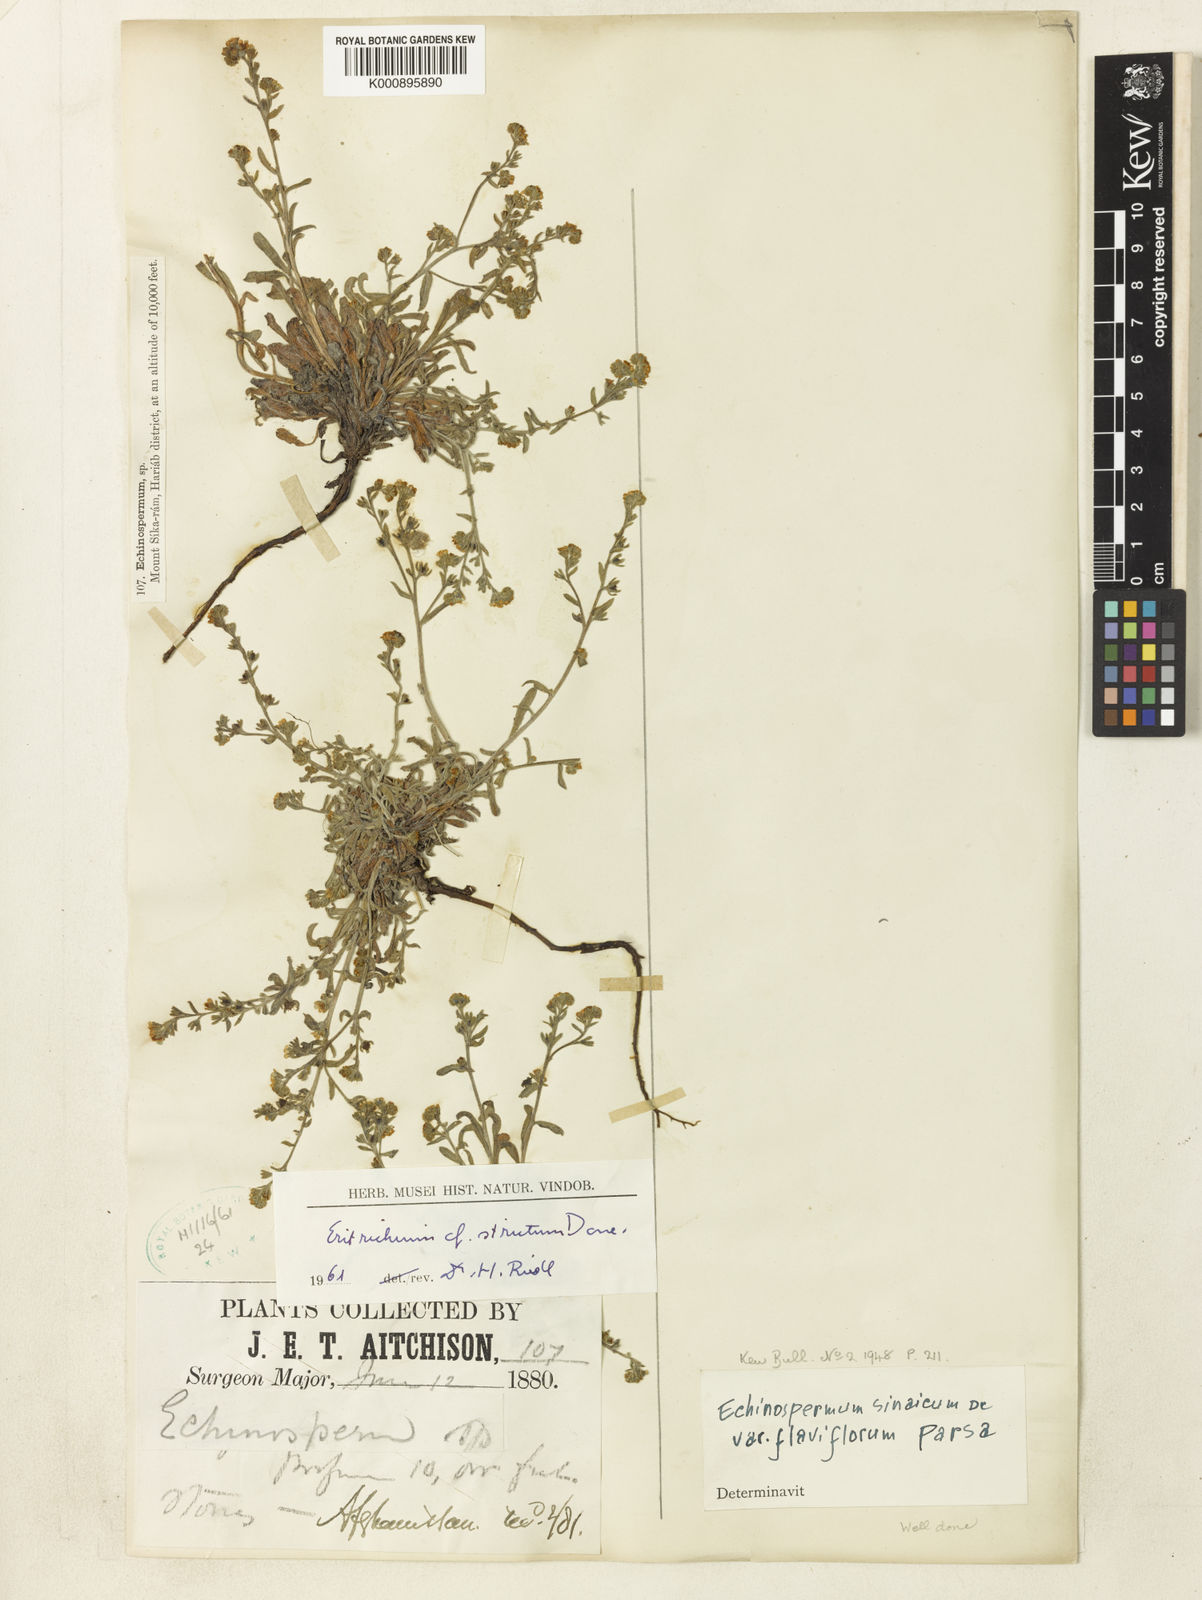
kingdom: Plantae
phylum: Tracheophyta
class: Magnoliopsida
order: Boraginales
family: Boraginaceae
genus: Eritrichium
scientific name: Eritrichium canum
